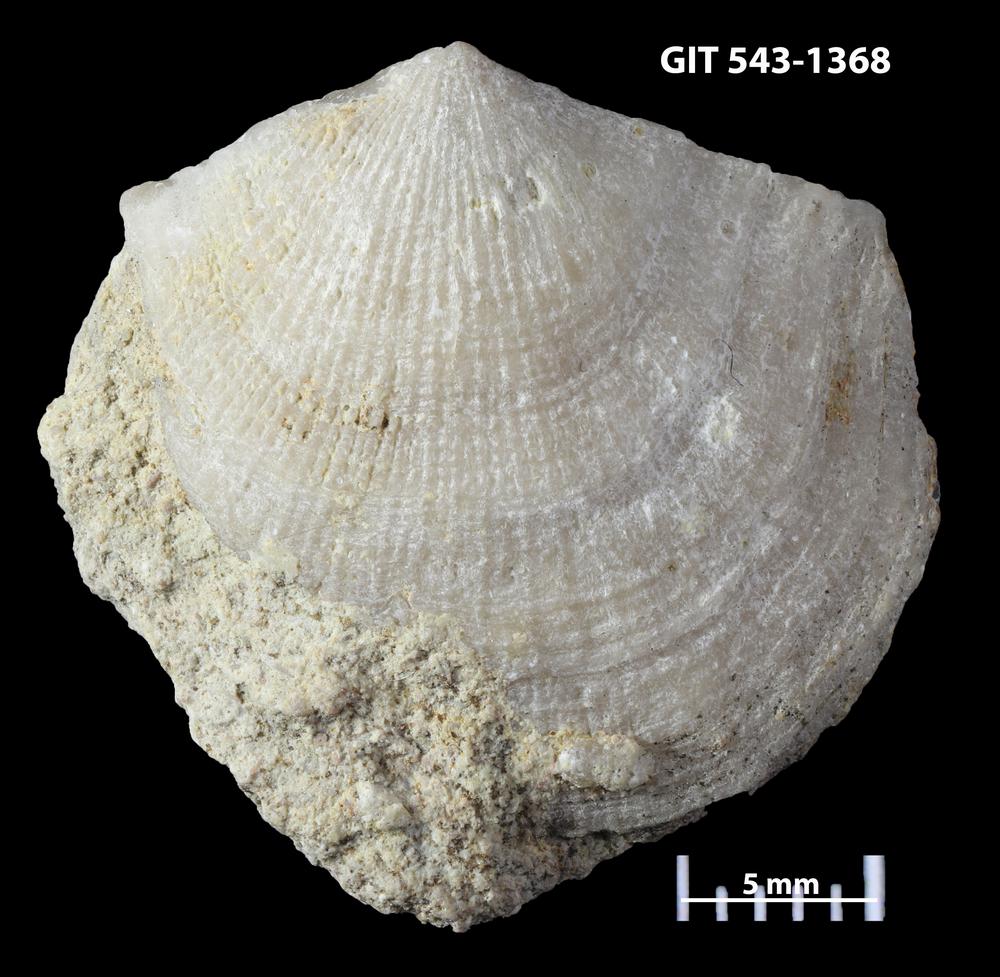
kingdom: Animalia
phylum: Brachiopoda
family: Gonambonitidae
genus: Estlandia
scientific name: Estlandia Orthisina marginata
